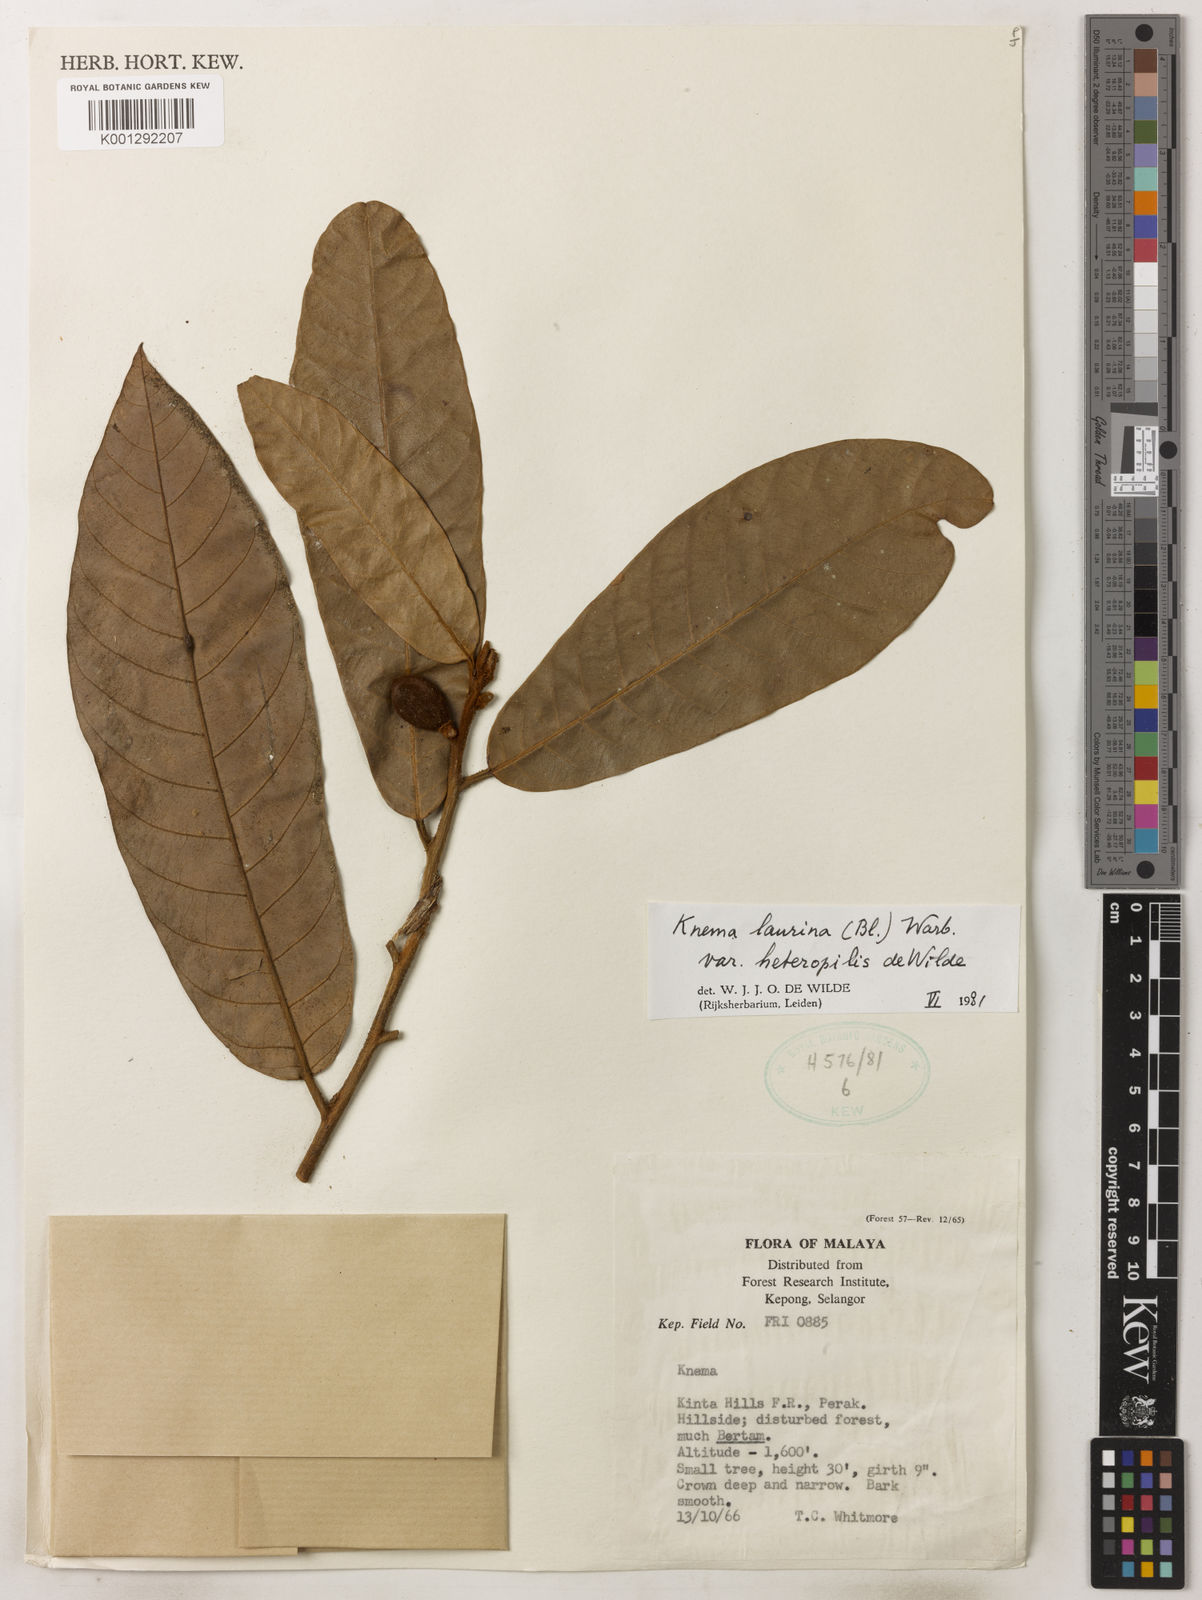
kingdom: Plantae
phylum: Tracheophyta
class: Magnoliopsida
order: Magnoliales
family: Myristicaceae
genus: Knema
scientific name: Knema laurina
